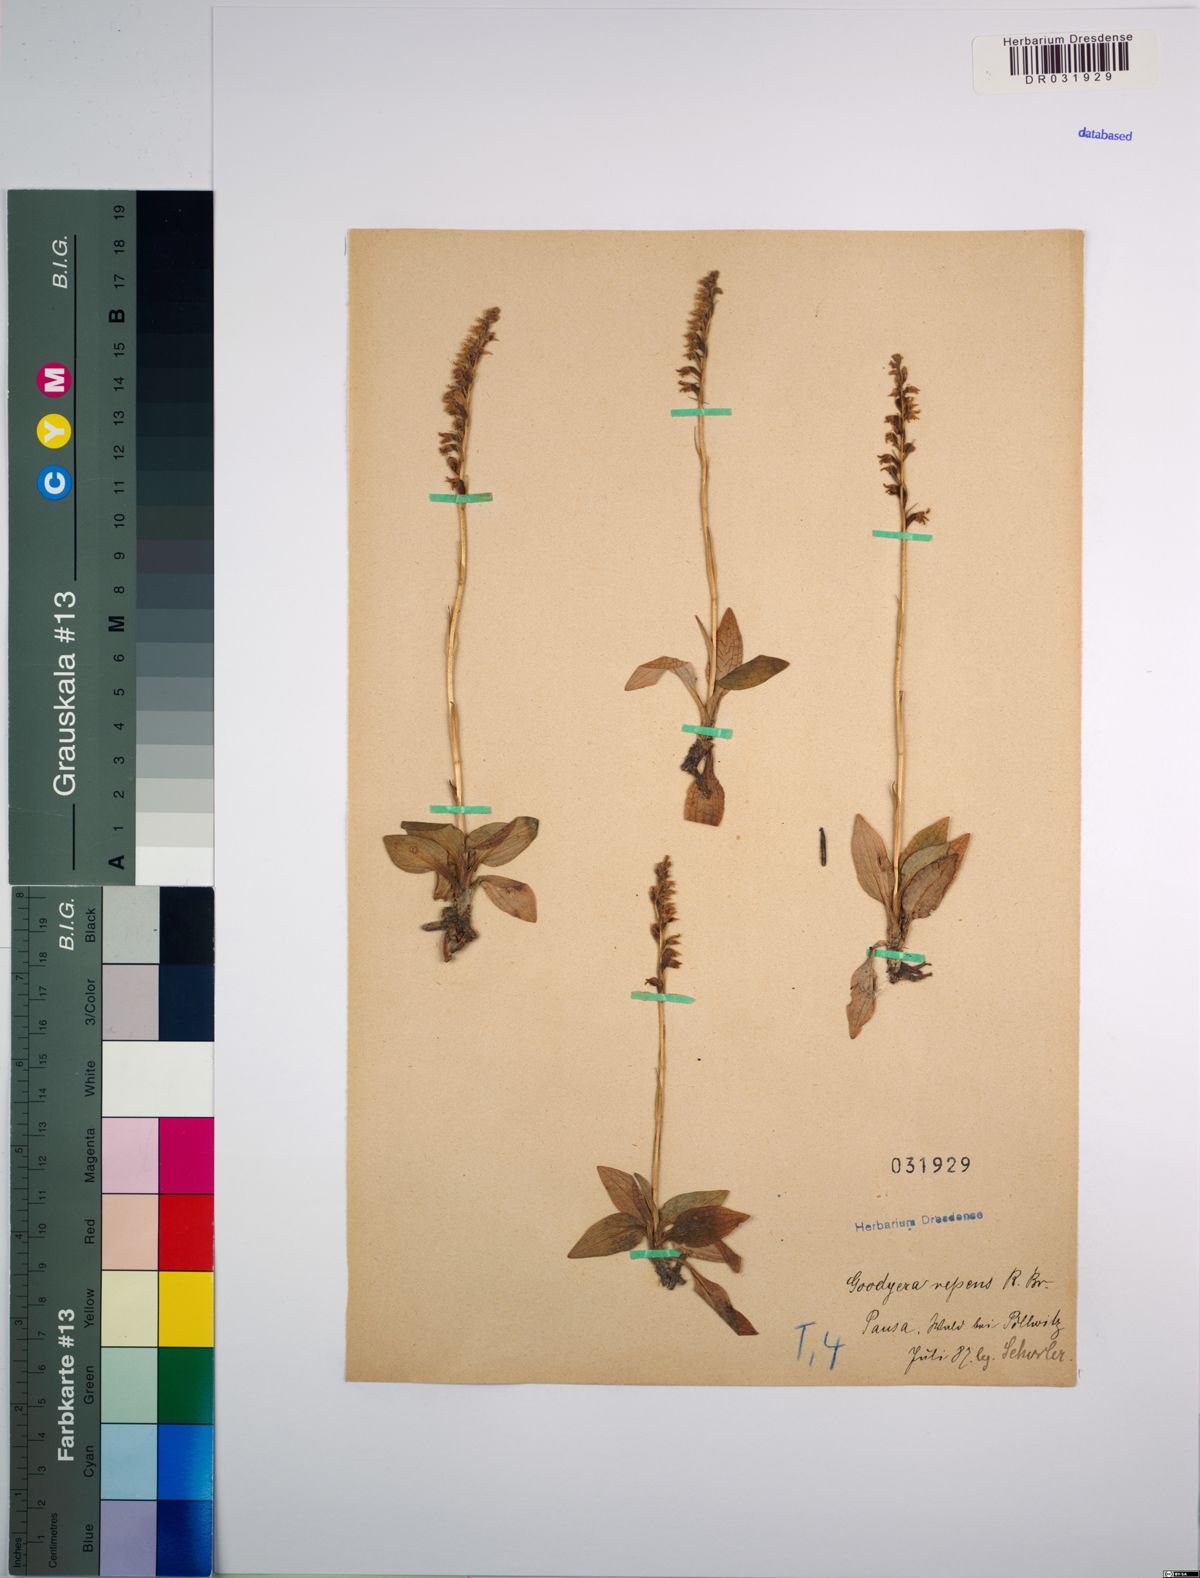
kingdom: Plantae
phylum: Tracheophyta
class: Liliopsida
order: Asparagales
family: Orchidaceae
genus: Goodyera
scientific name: Goodyera repens
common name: Creeping lady's-tresses
